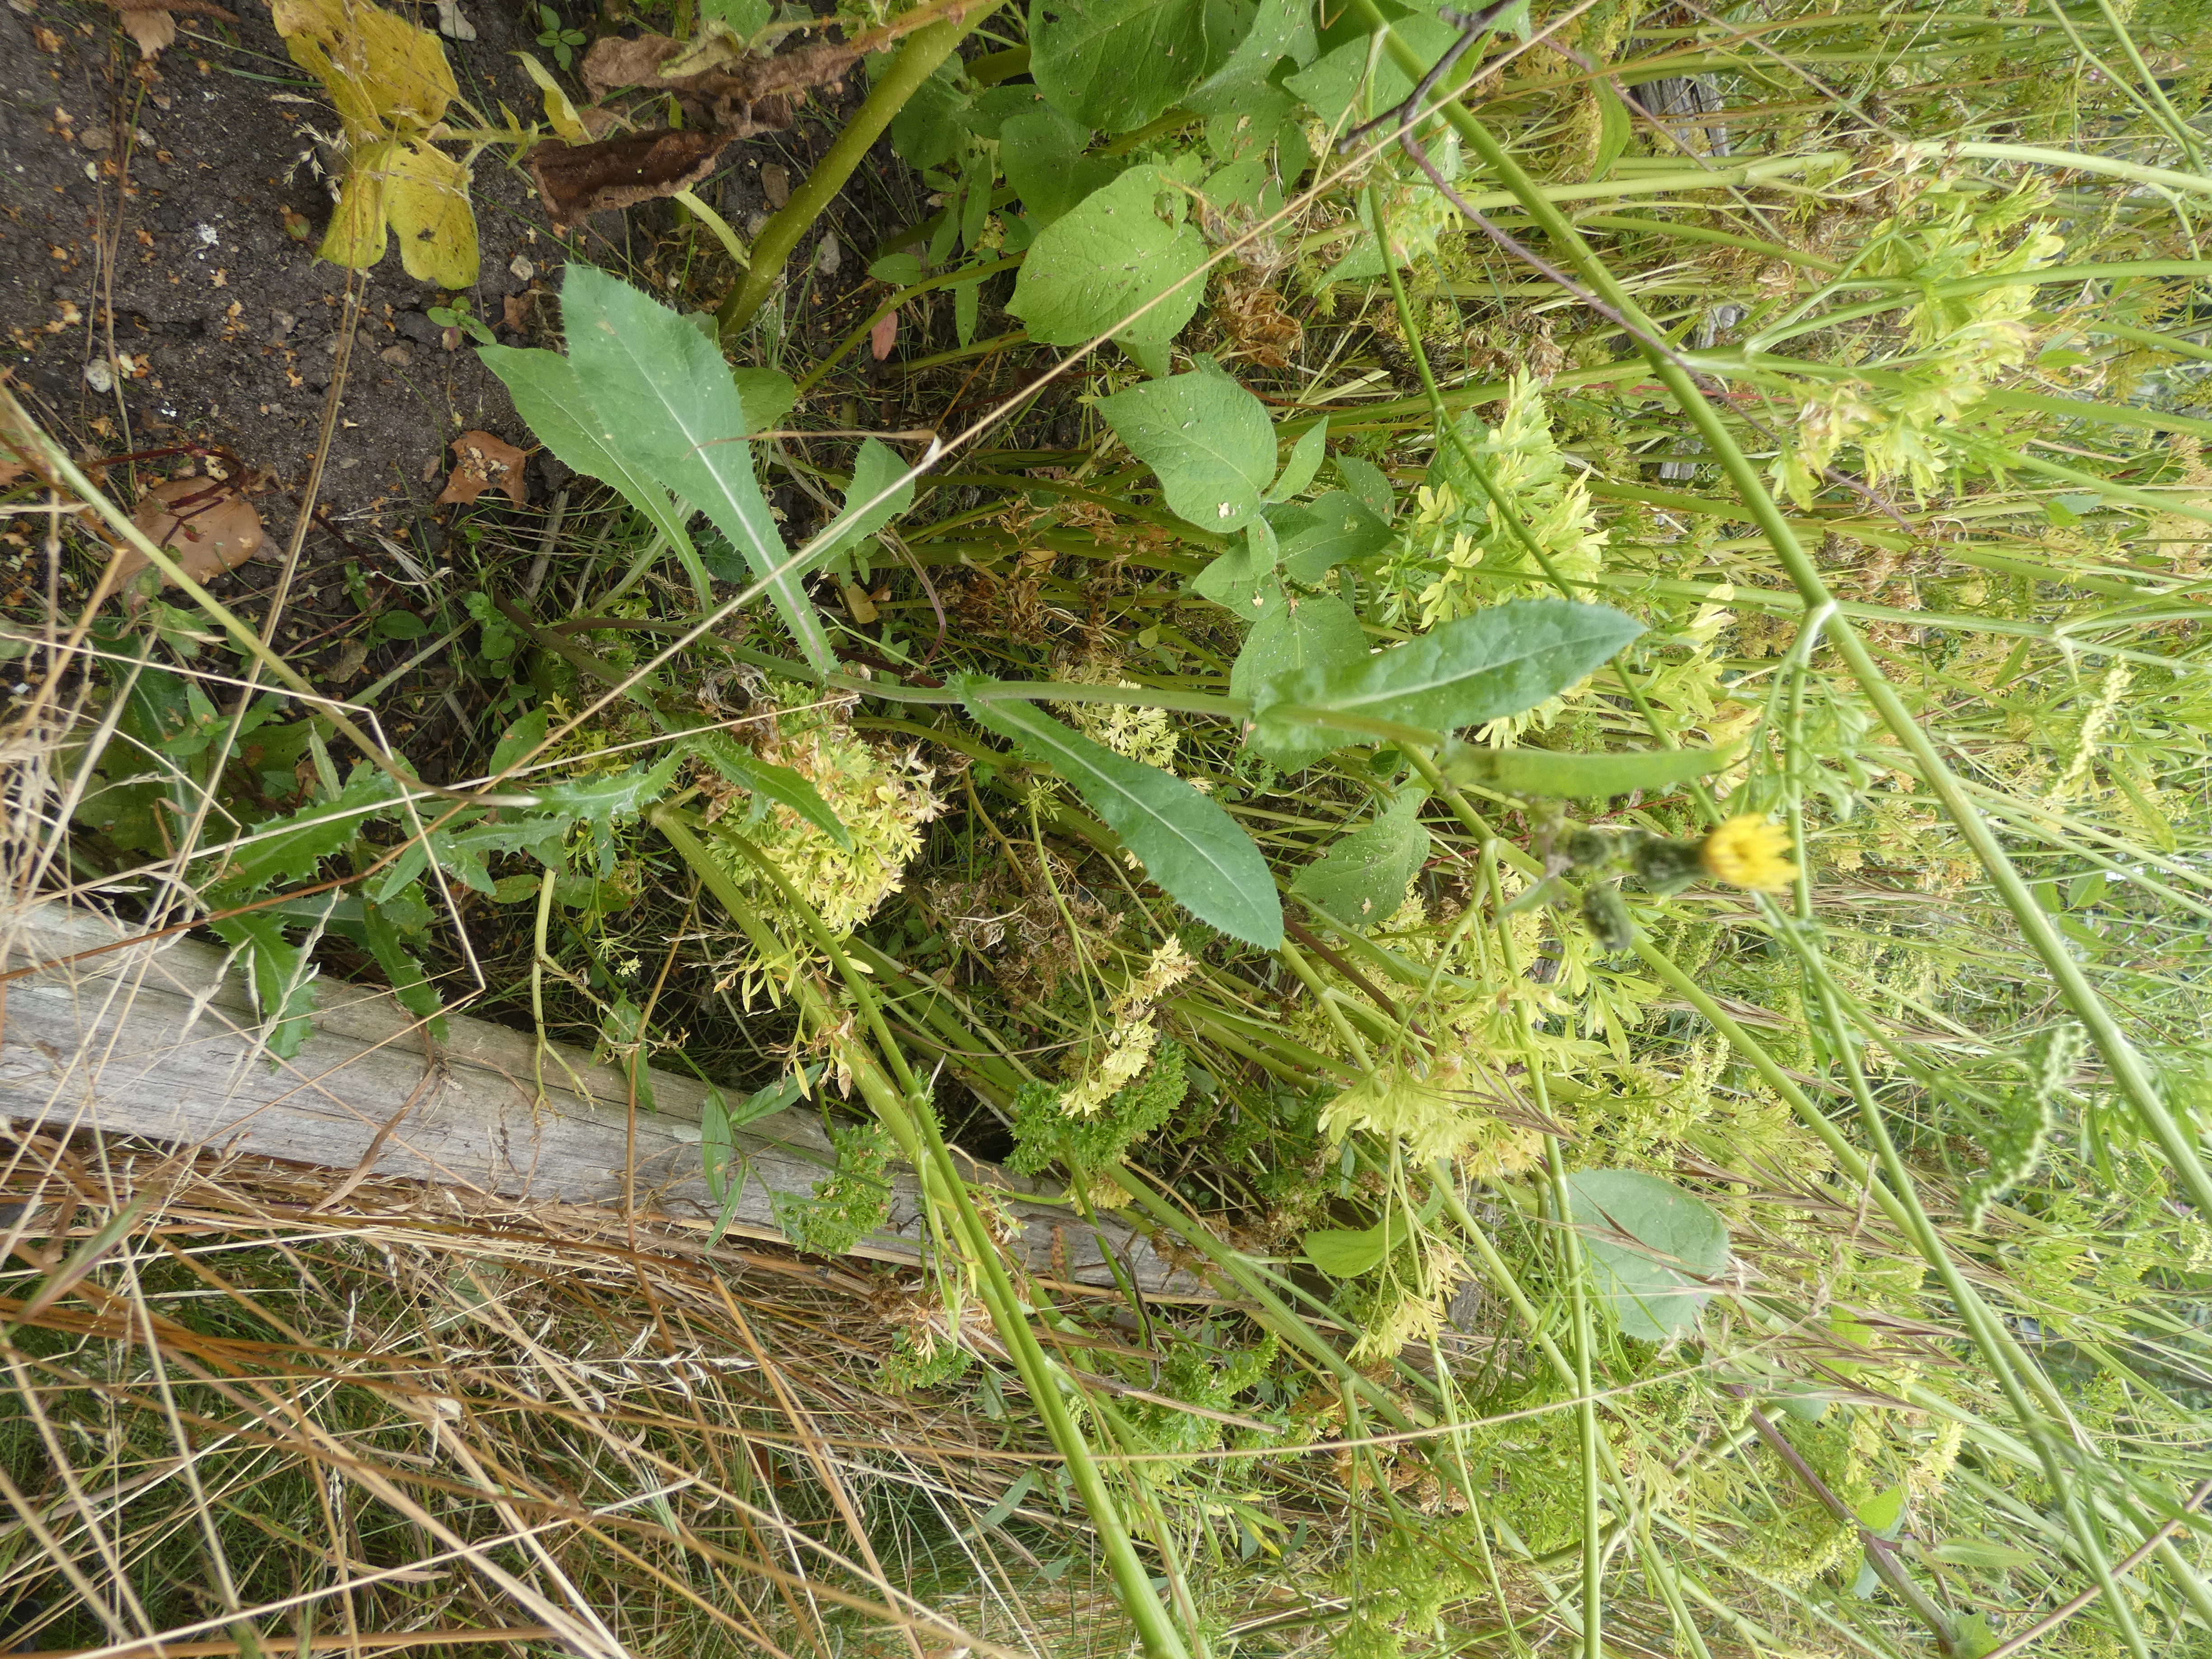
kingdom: Plantae
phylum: Tracheophyta
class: Magnoliopsida
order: Asterales
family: Asteraceae
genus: Sonchus
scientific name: Sonchus asper
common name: Ru svinemælk
